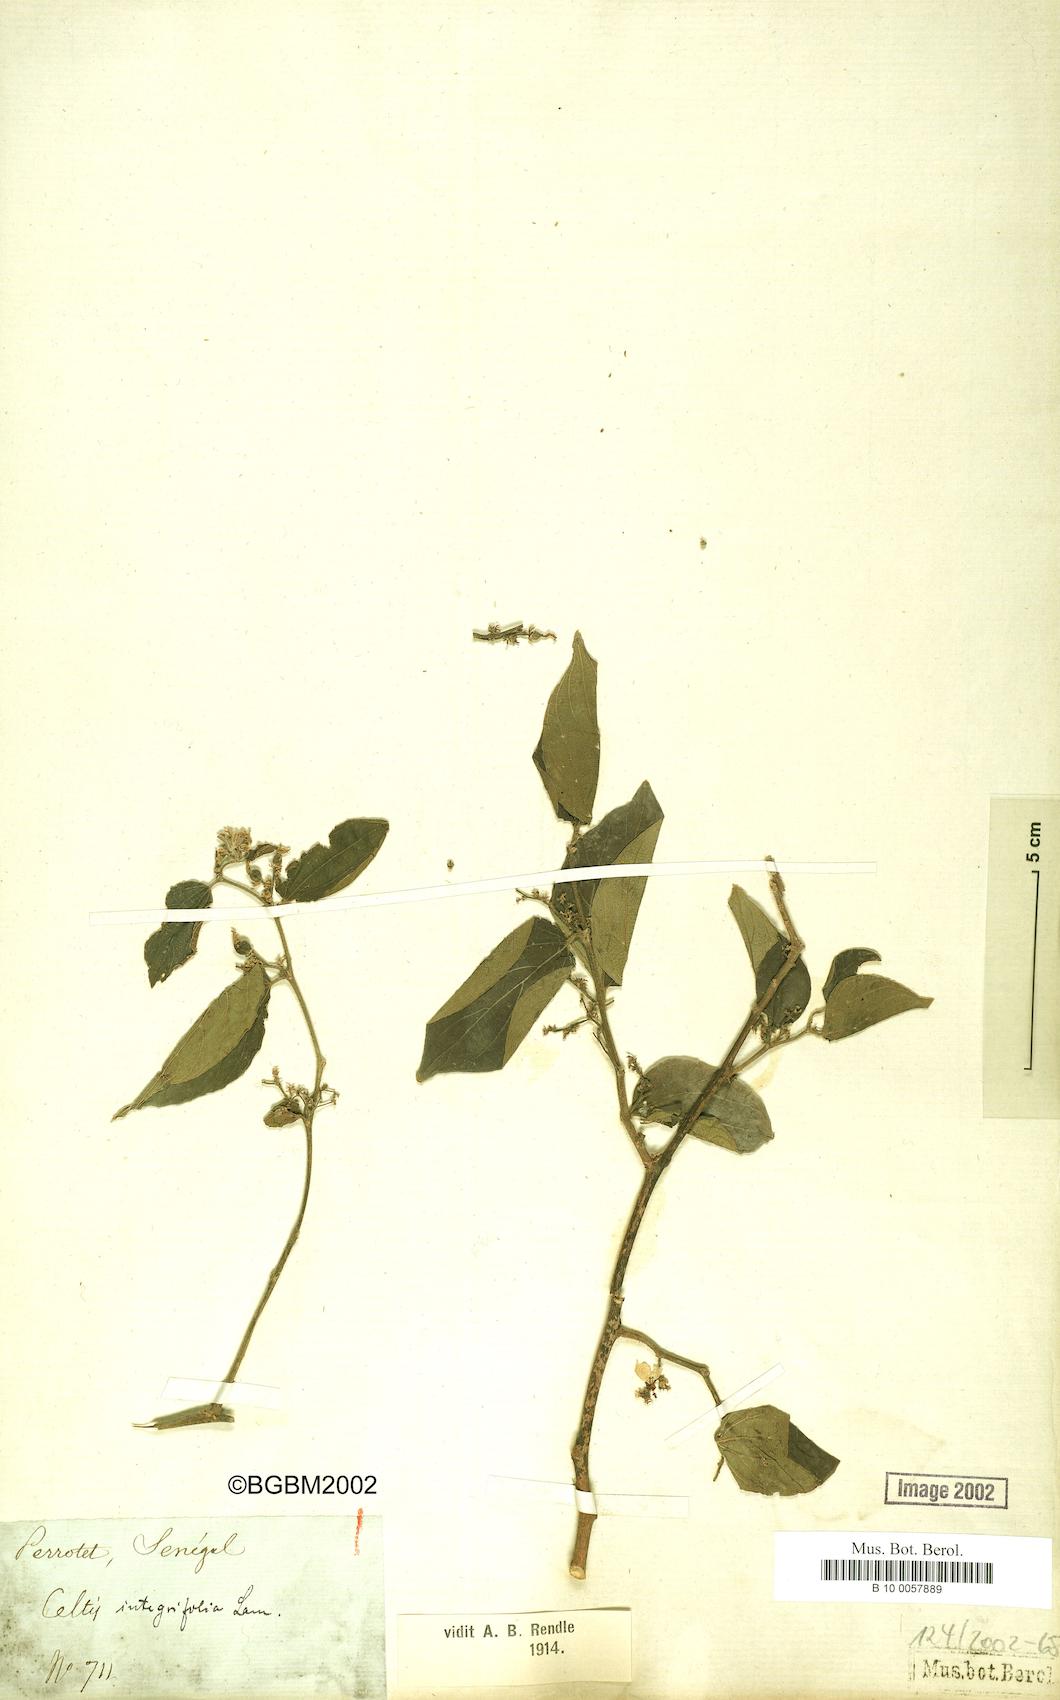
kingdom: Plantae
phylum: Tracheophyta
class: Magnoliopsida
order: Rosales
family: Cannabaceae
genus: Celtis
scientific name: Celtis toka
